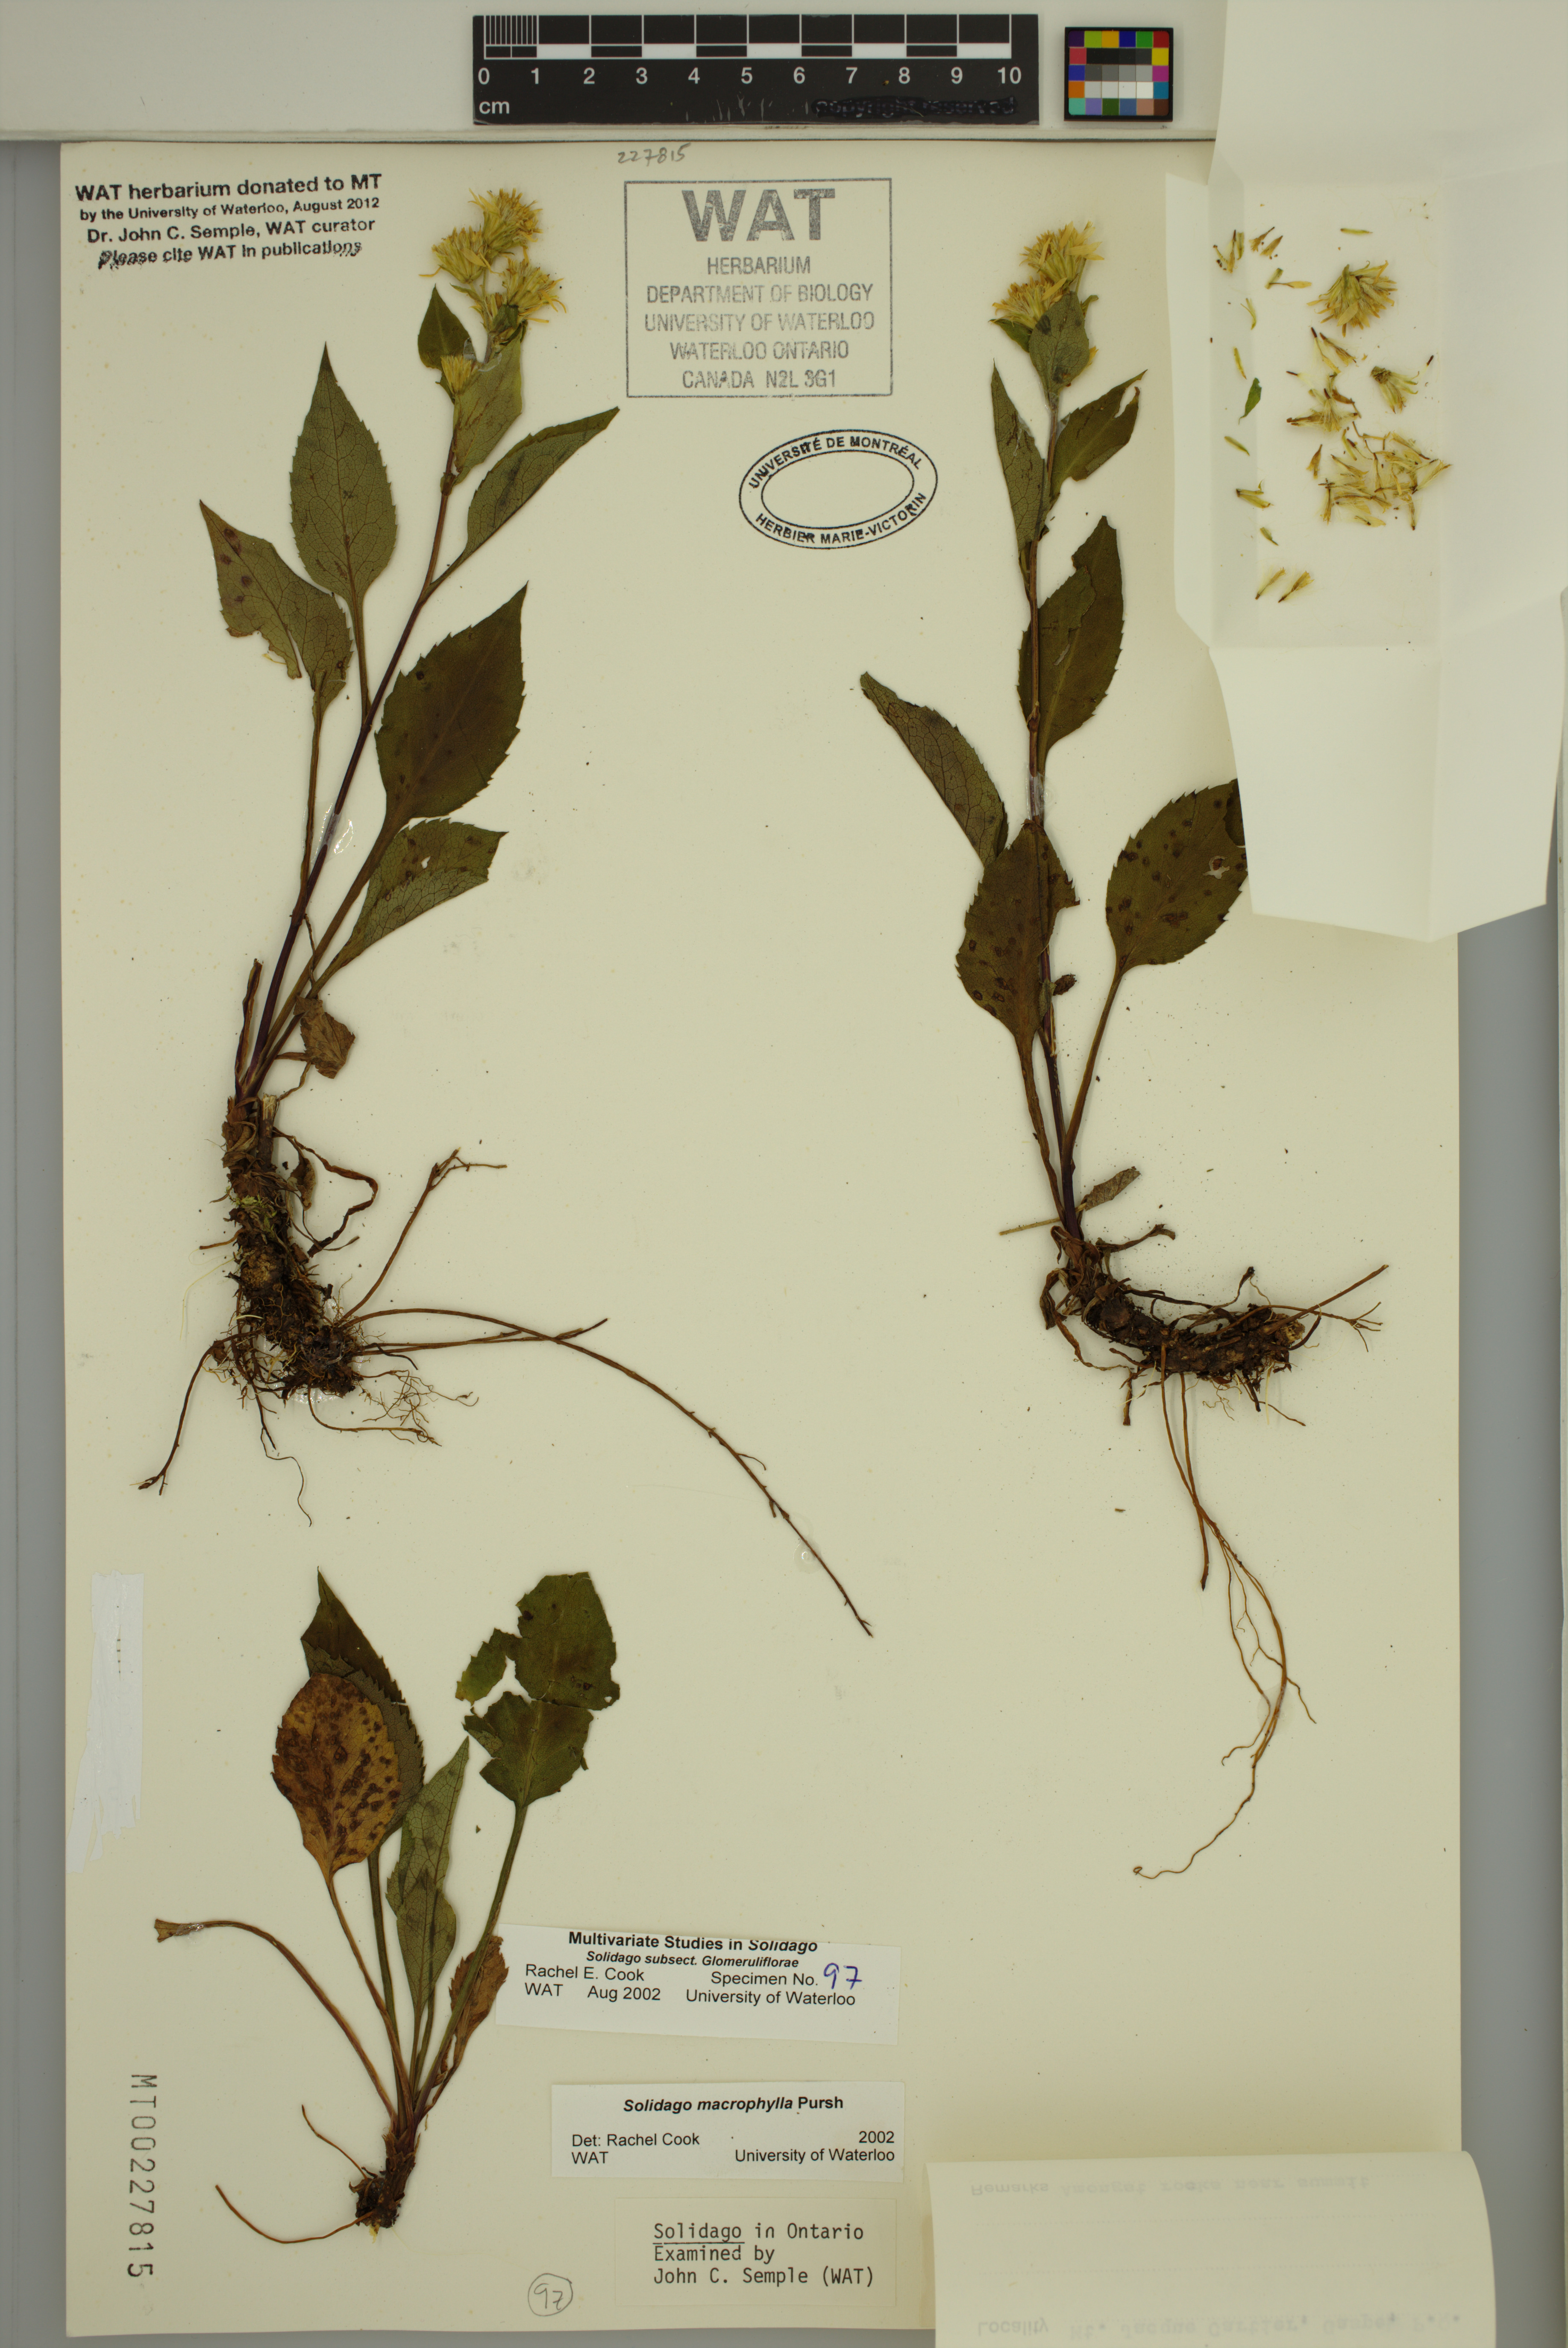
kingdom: Plantae
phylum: Tracheophyta
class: Magnoliopsida
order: Asterales
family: Asteraceae
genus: Solidago
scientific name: Solidago macrophylla
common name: Large-leaved goldenrod
